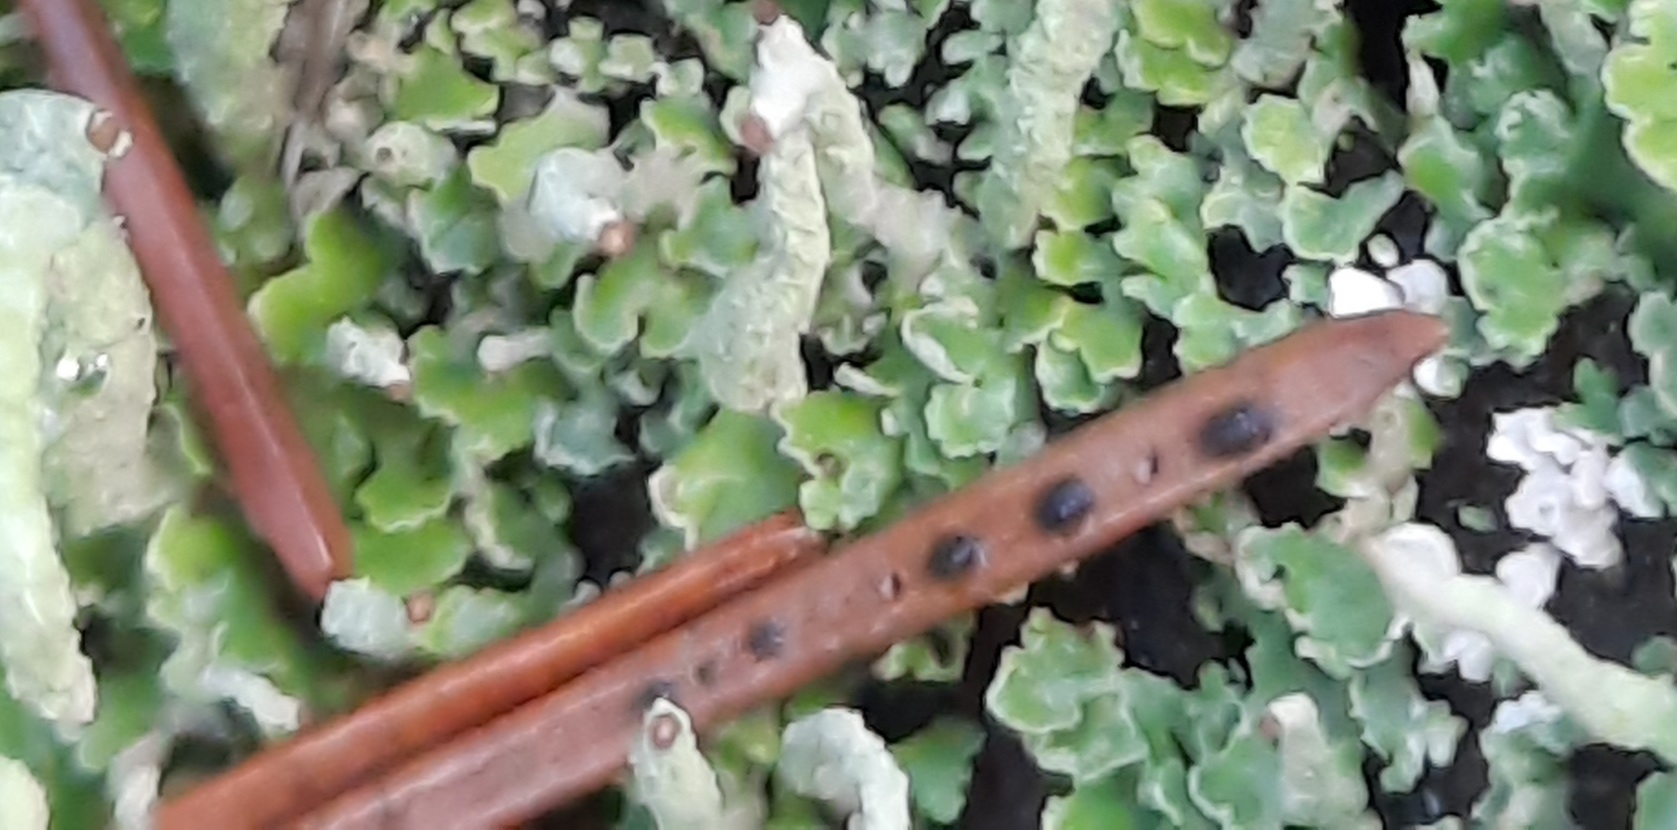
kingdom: Fungi
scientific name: Fungi
